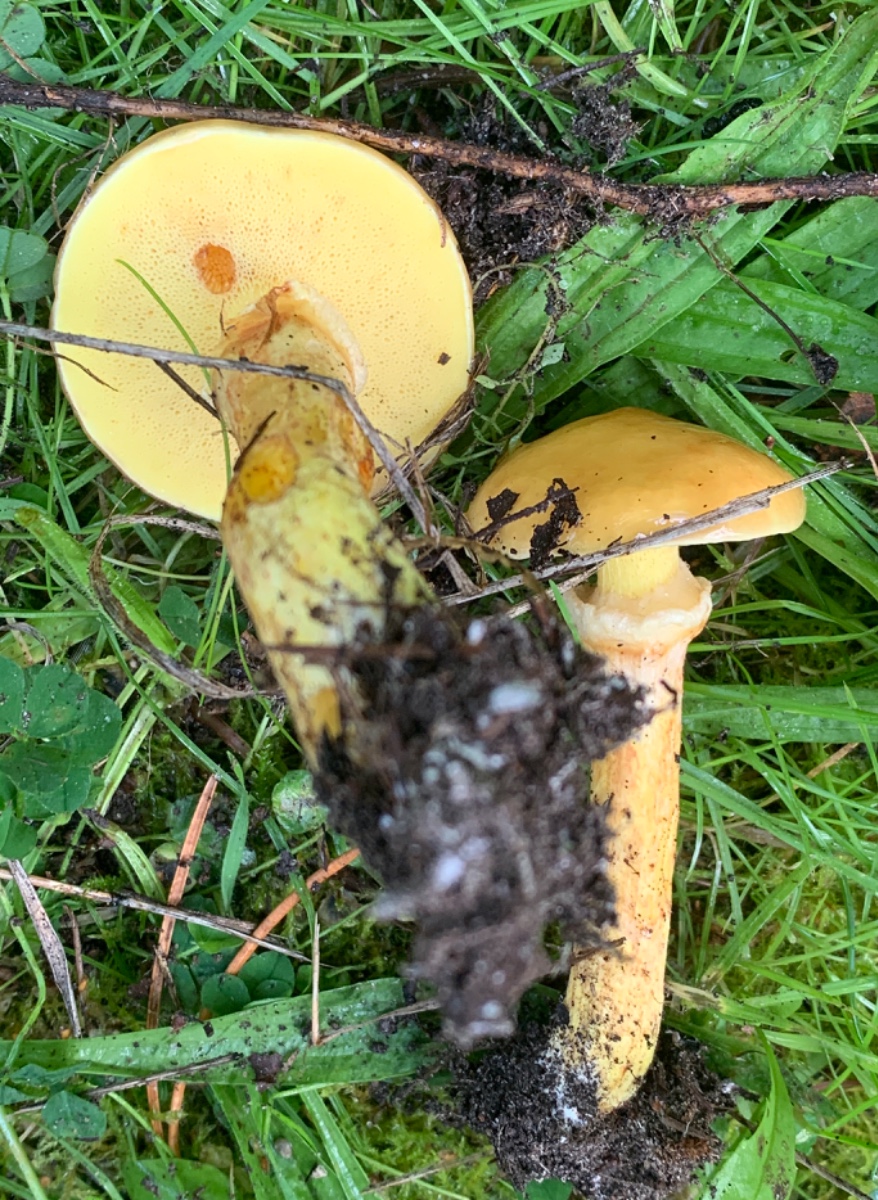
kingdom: Fungi
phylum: Basidiomycota
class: Agaricomycetes
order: Boletales
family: Suillaceae
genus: Suillus
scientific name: Suillus grevillei
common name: lærke-slimrørhat
